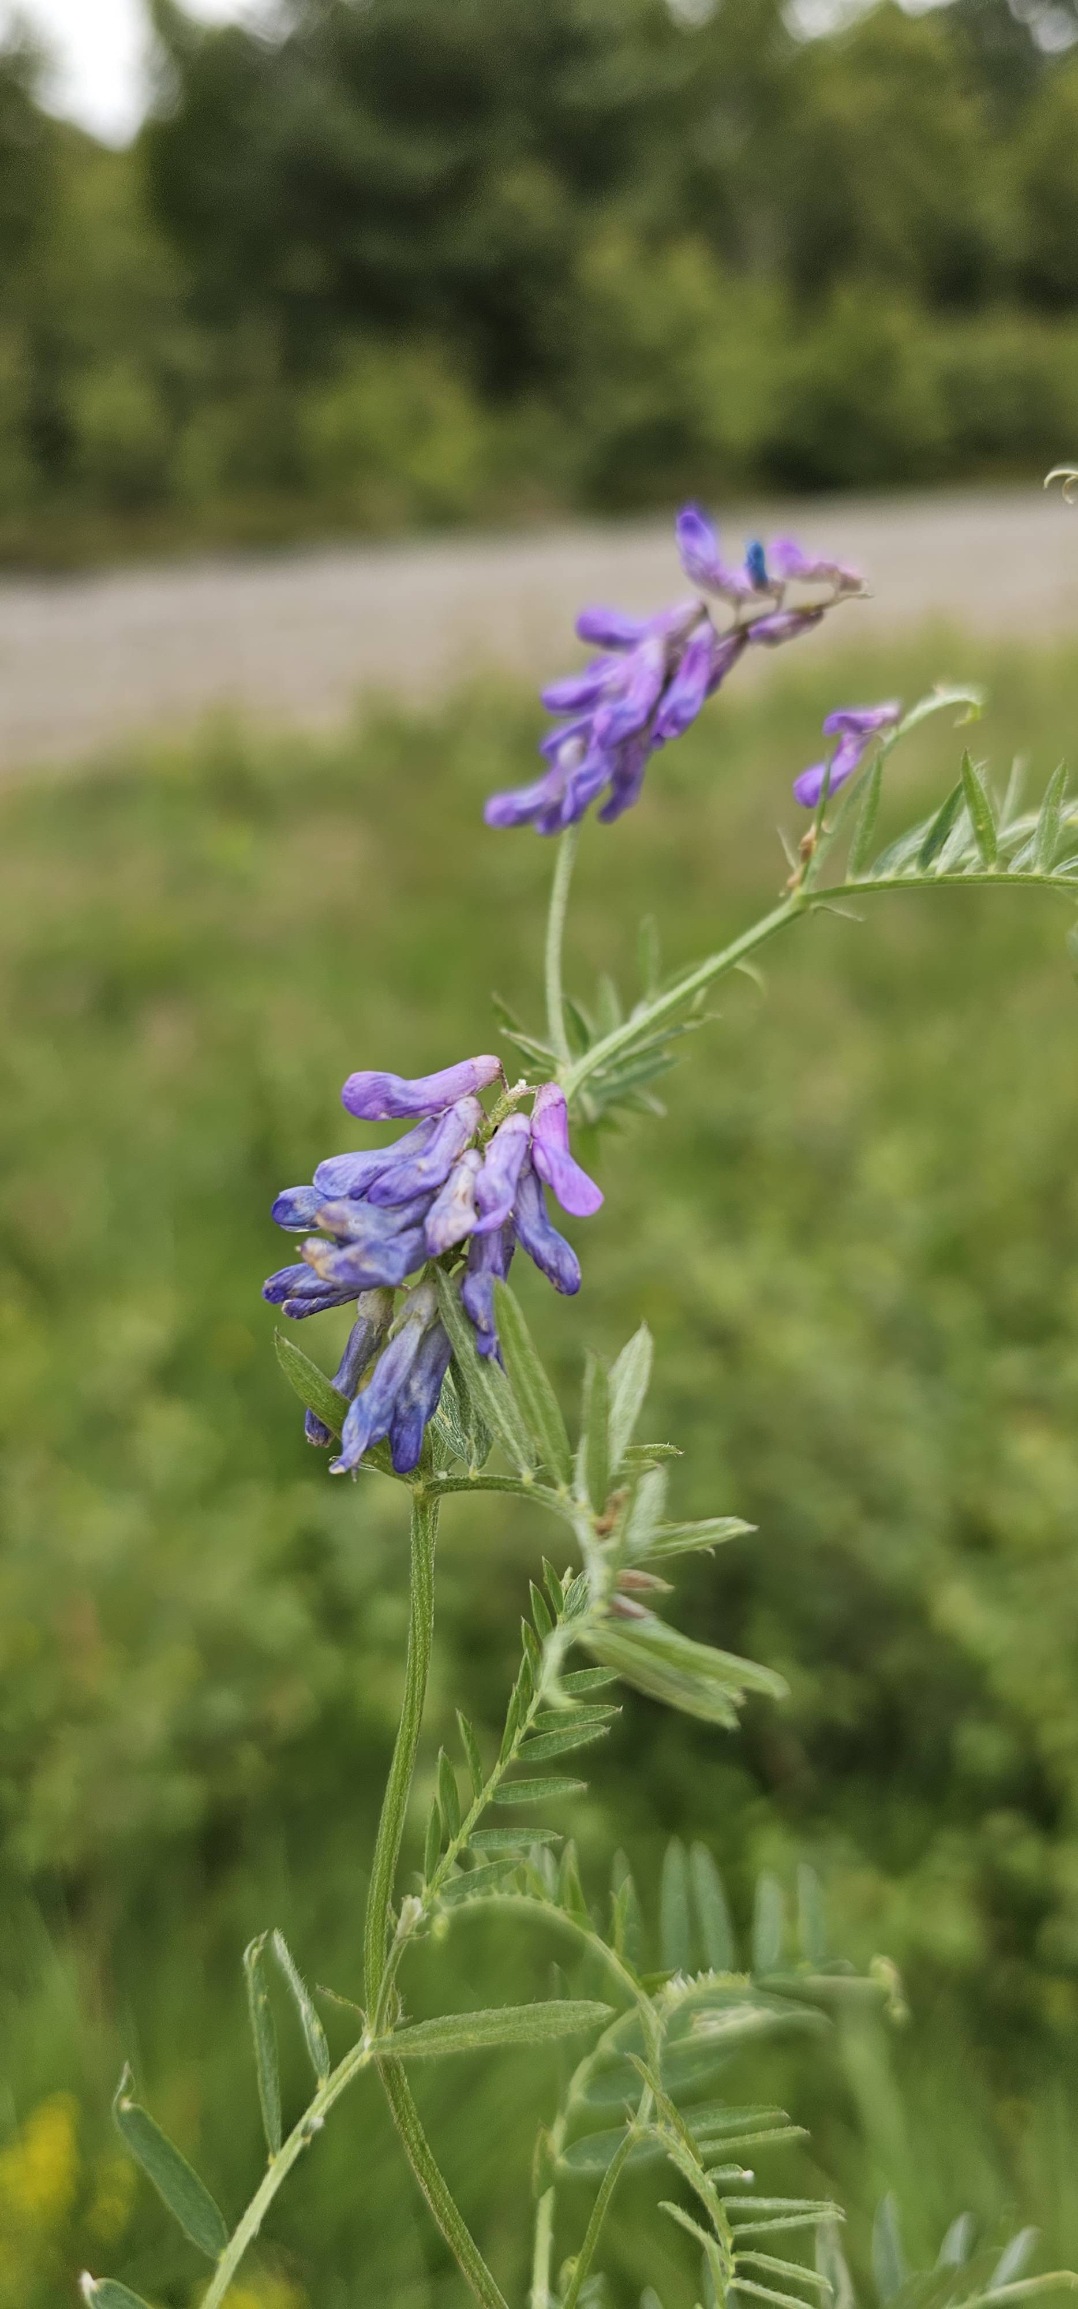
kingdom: Plantae
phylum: Tracheophyta
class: Magnoliopsida
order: Fabales
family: Fabaceae
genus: Vicia
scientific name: Vicia cracca
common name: Muse-vikke
